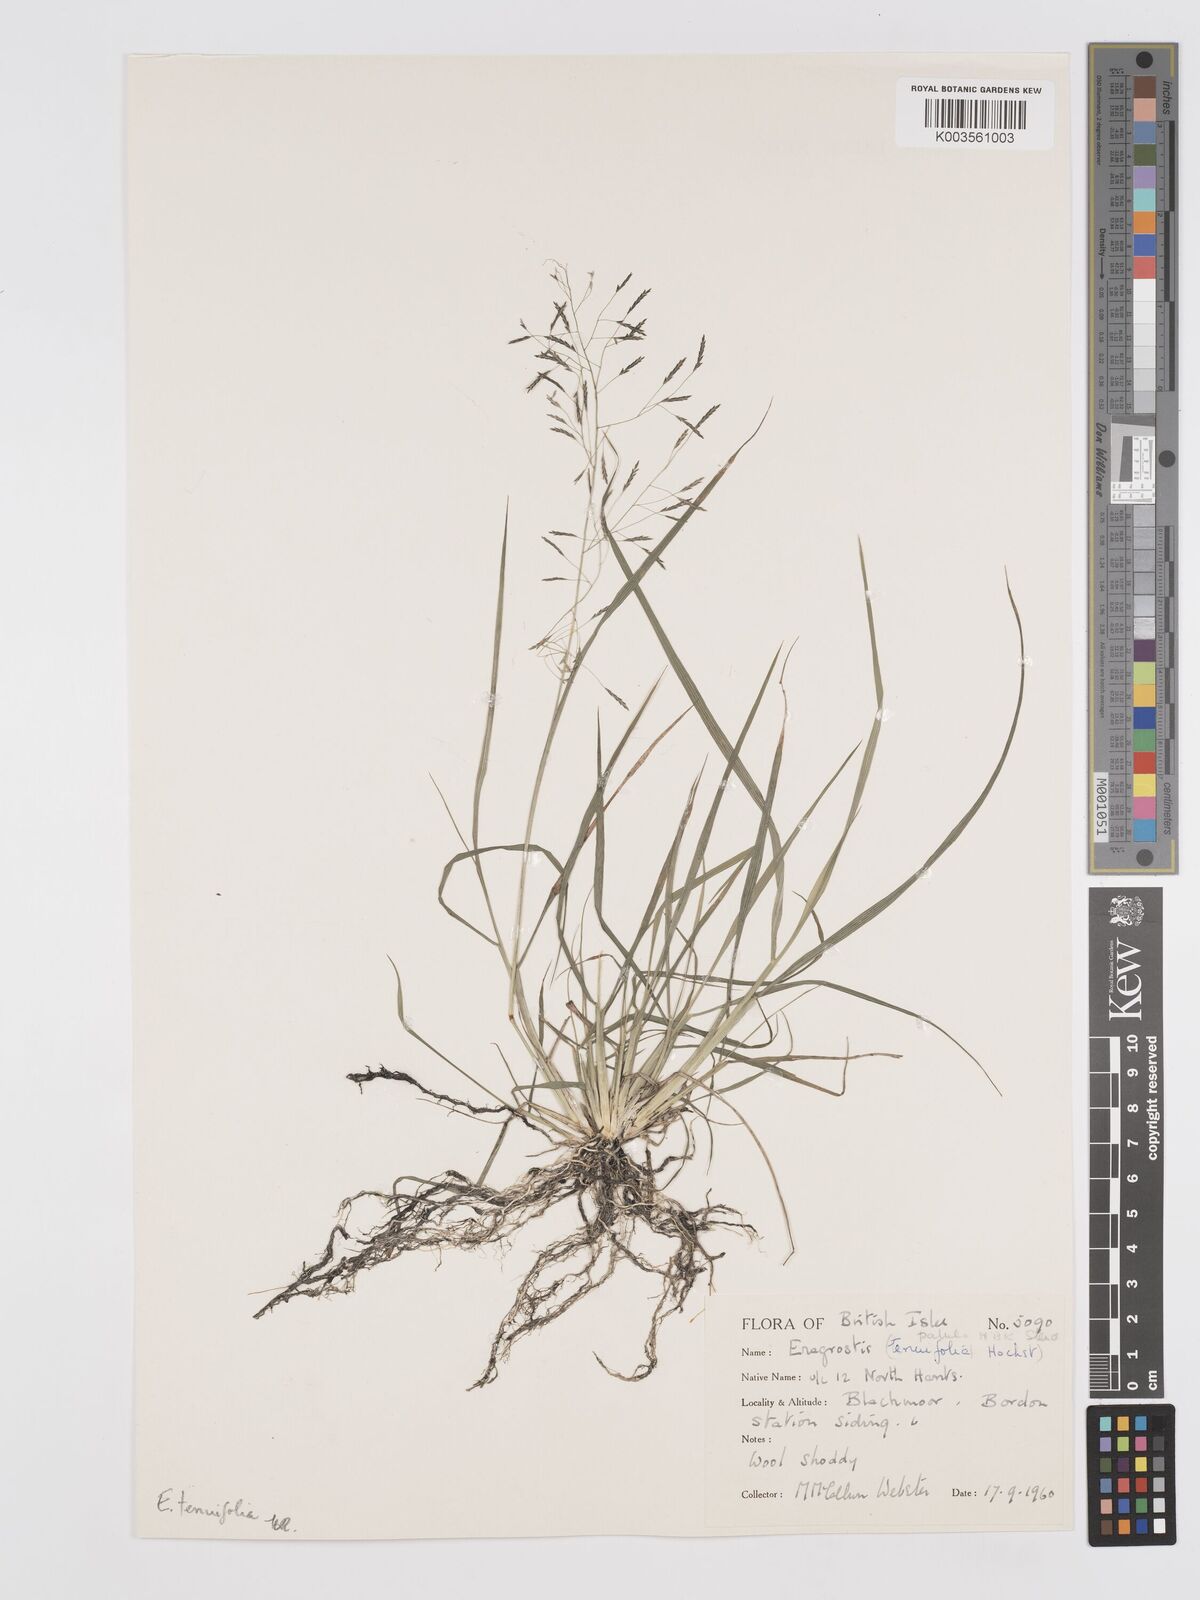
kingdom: Plantae
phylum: Tracheophyta
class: Liliopsida
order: Poales
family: Poaceae
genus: Eragrostis
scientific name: Eragrostis
